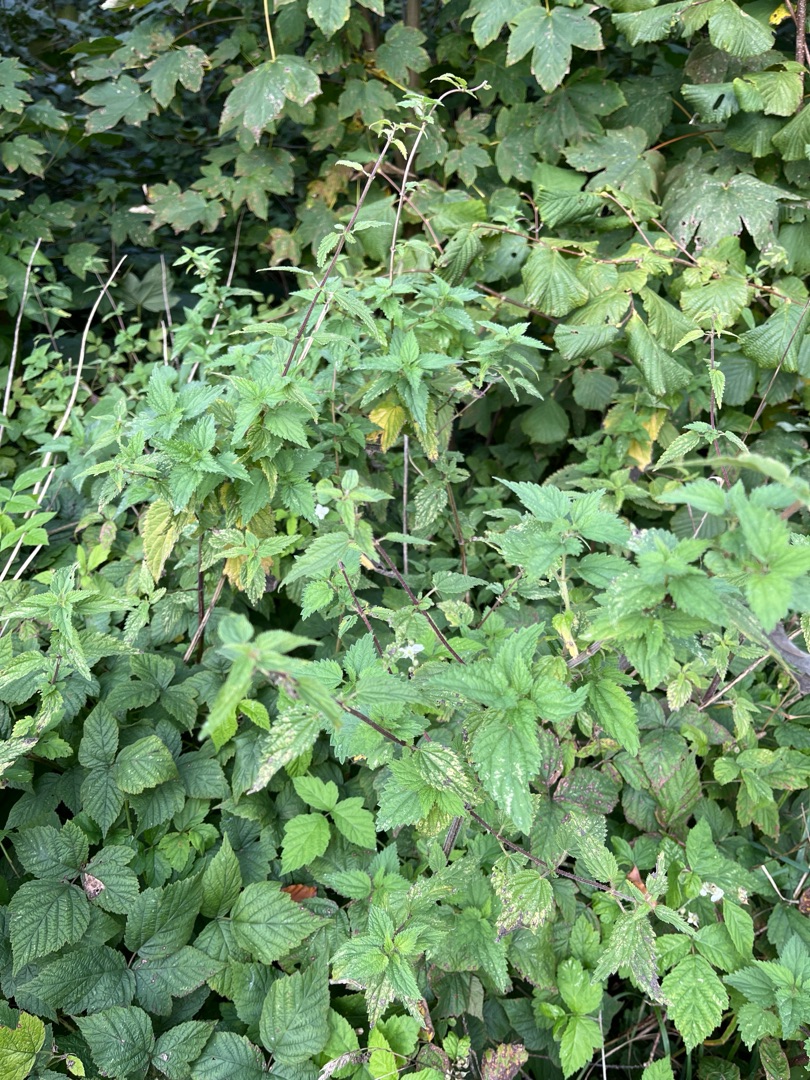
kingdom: Plantae
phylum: Tracheophyta
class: Magnoliopsida
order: Rosales
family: Urticaceae
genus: Urtica
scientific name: Urtica dioica
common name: Stor nælde
